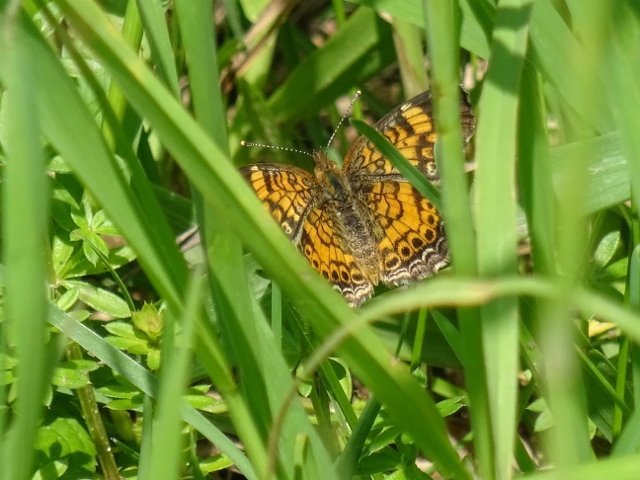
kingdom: Animalia
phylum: Arthropoda
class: Insecta
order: Lepidoptera
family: Nymphalidae
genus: Phyciodes
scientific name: Phyciodes tharos
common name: Northern Crescent
